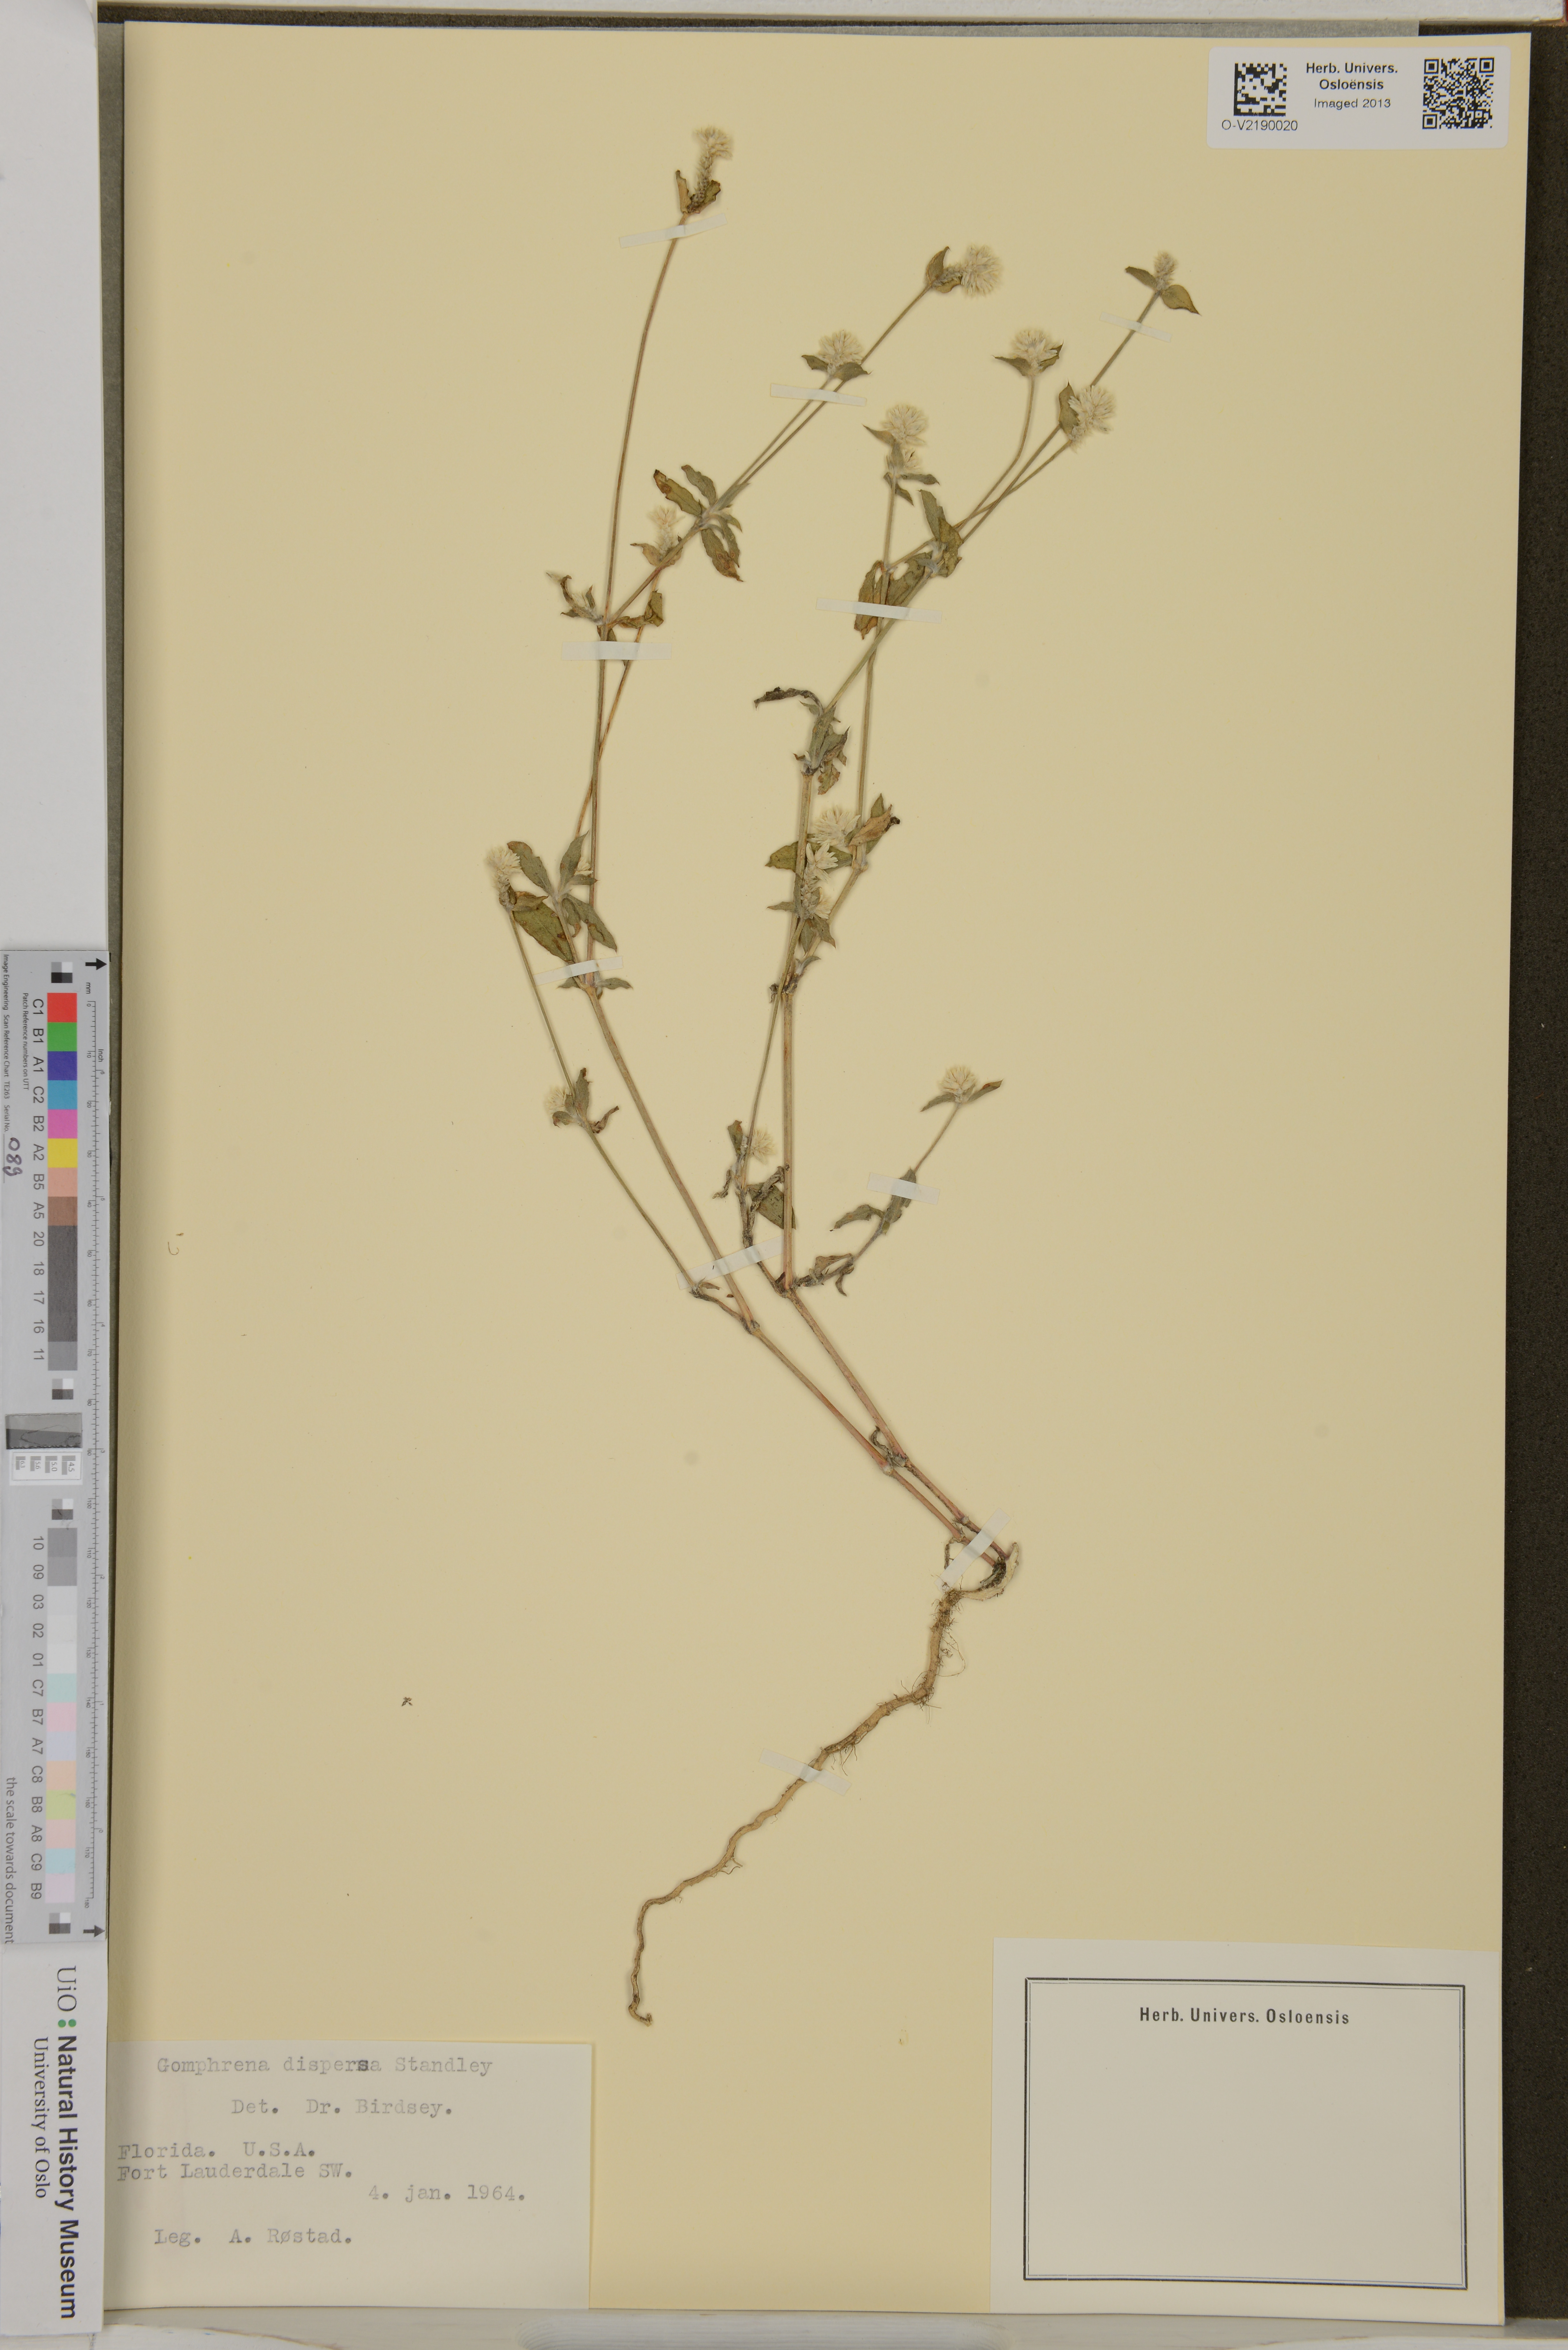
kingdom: Plantae
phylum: Tracheophyta
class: Magnoliopsida
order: Caryophyllales
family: Amaranthaceae
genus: Gomphrena
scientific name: Gomphrena serrata
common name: Arrasa con todo
